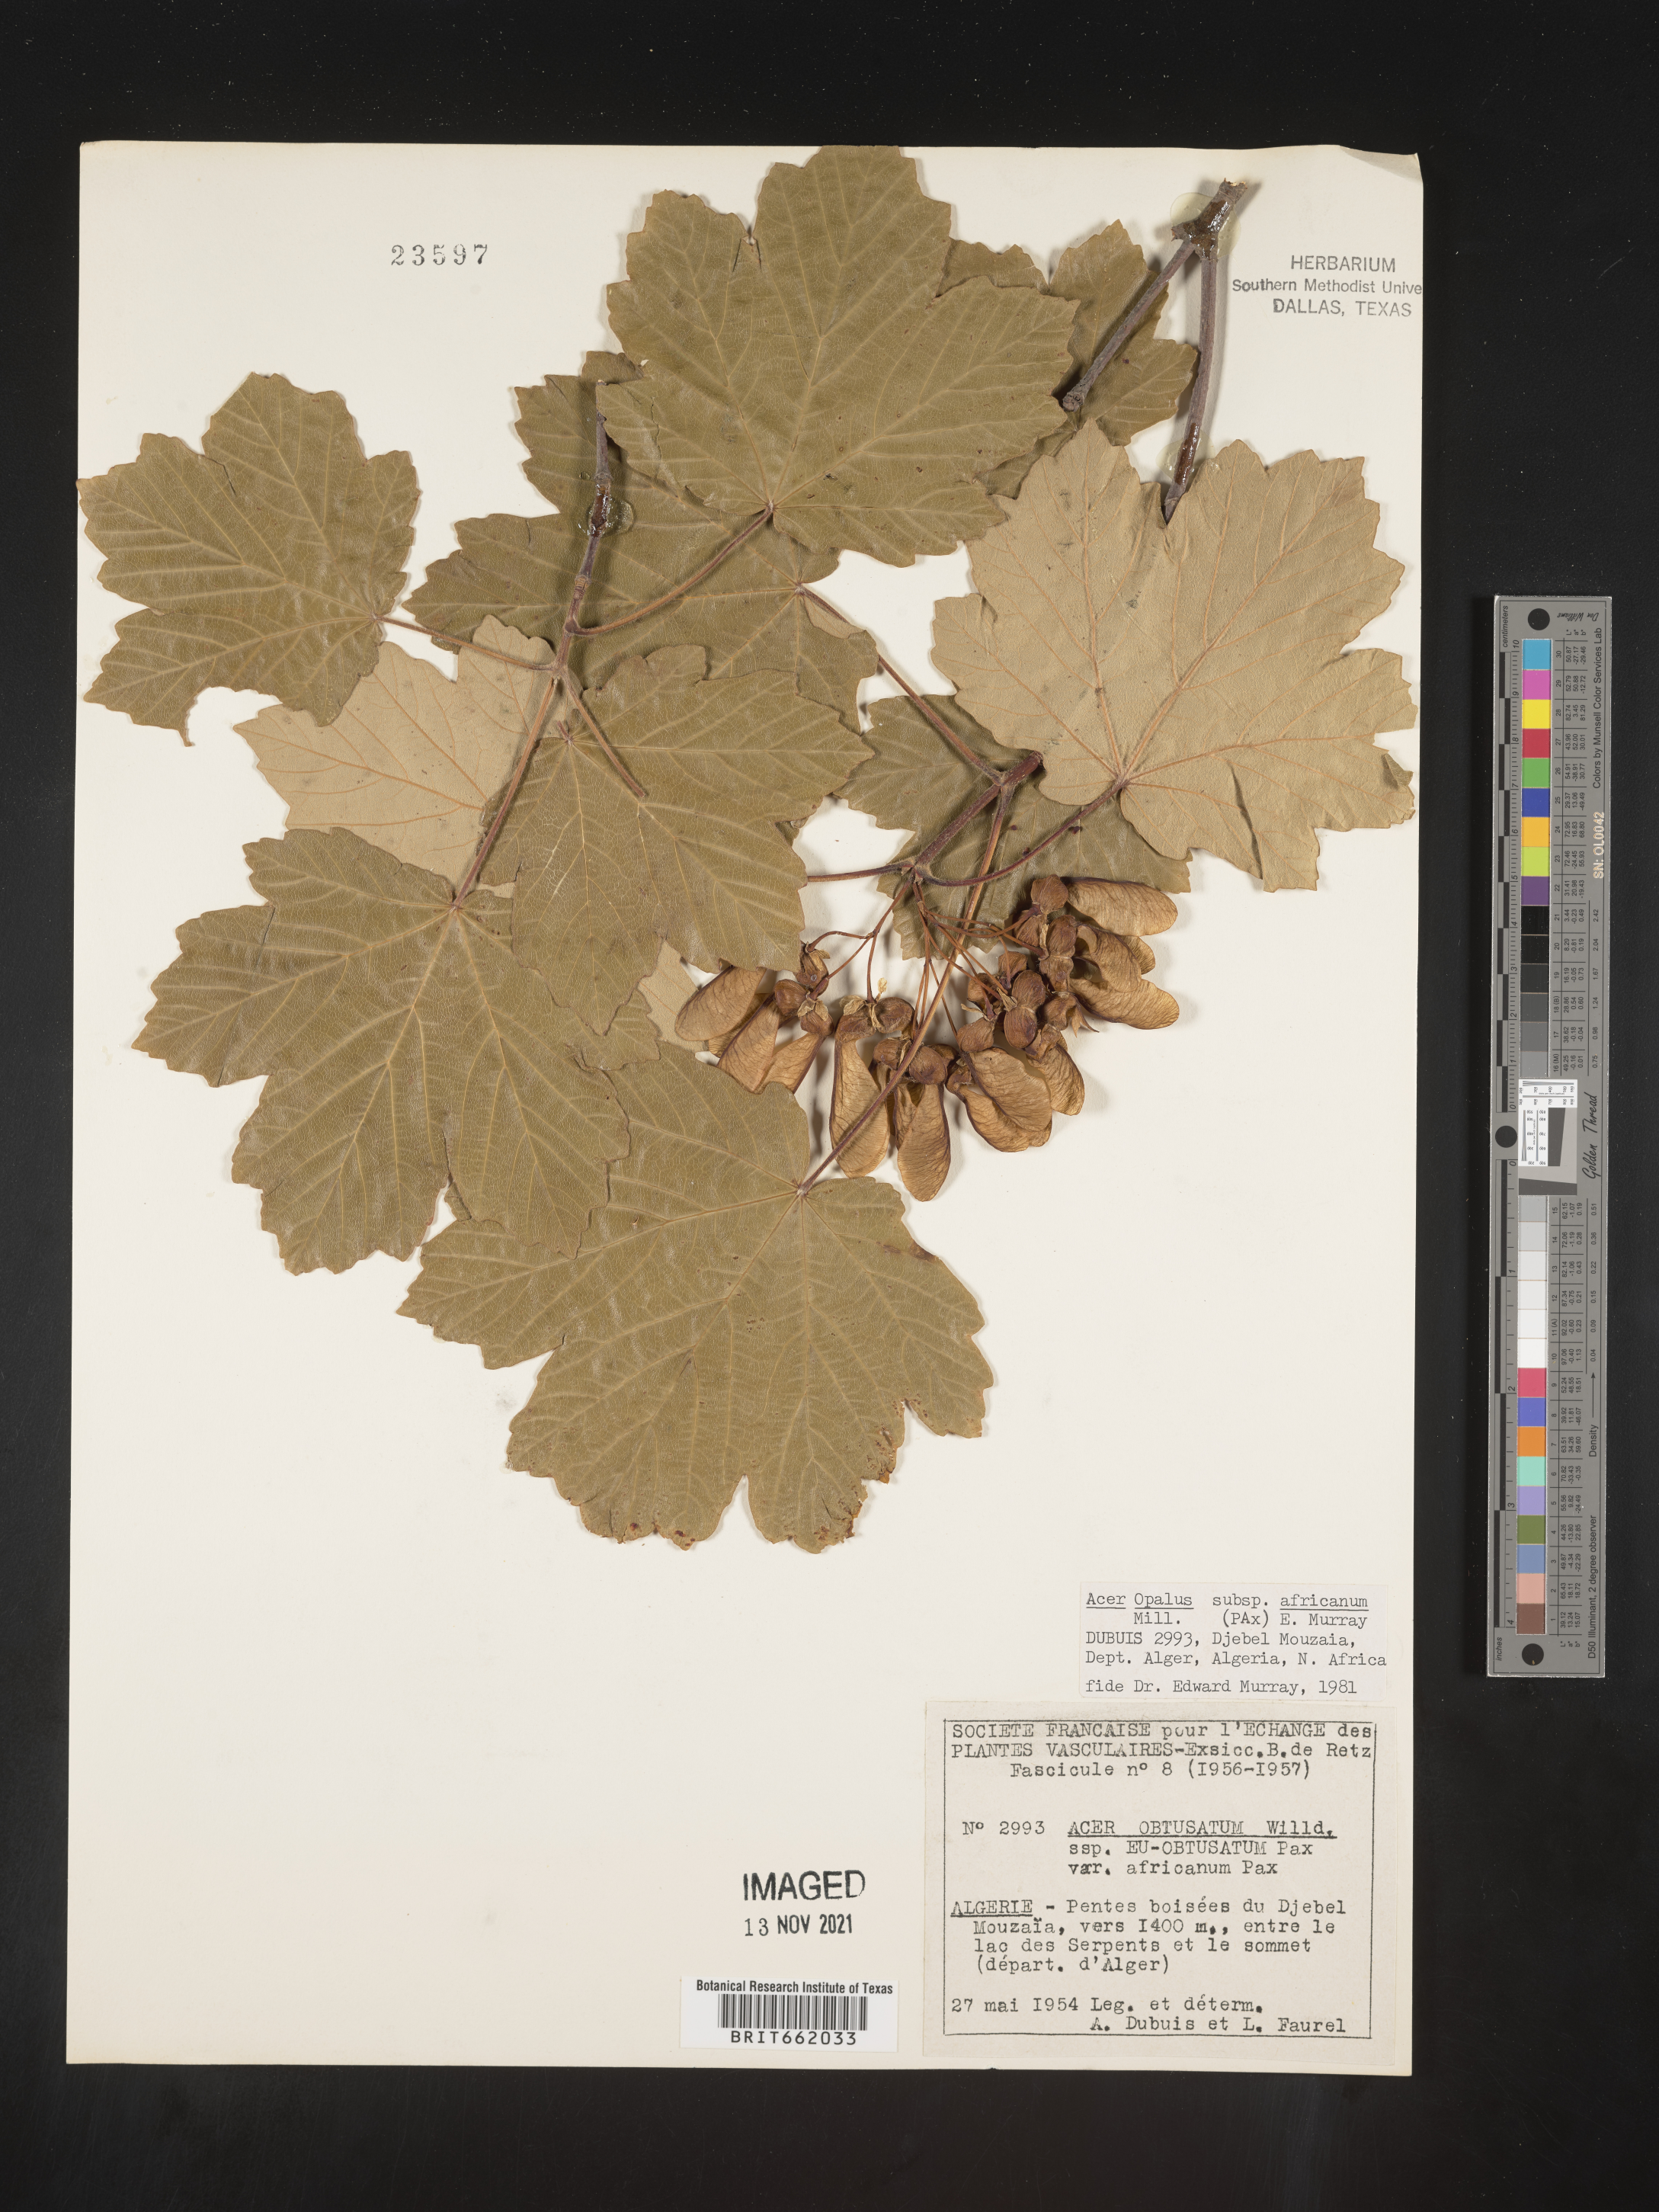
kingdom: Plantae
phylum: Tracheophyta
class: Magnoliopsida
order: Sapindales
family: Sapindaceae
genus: Acer
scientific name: Acer
